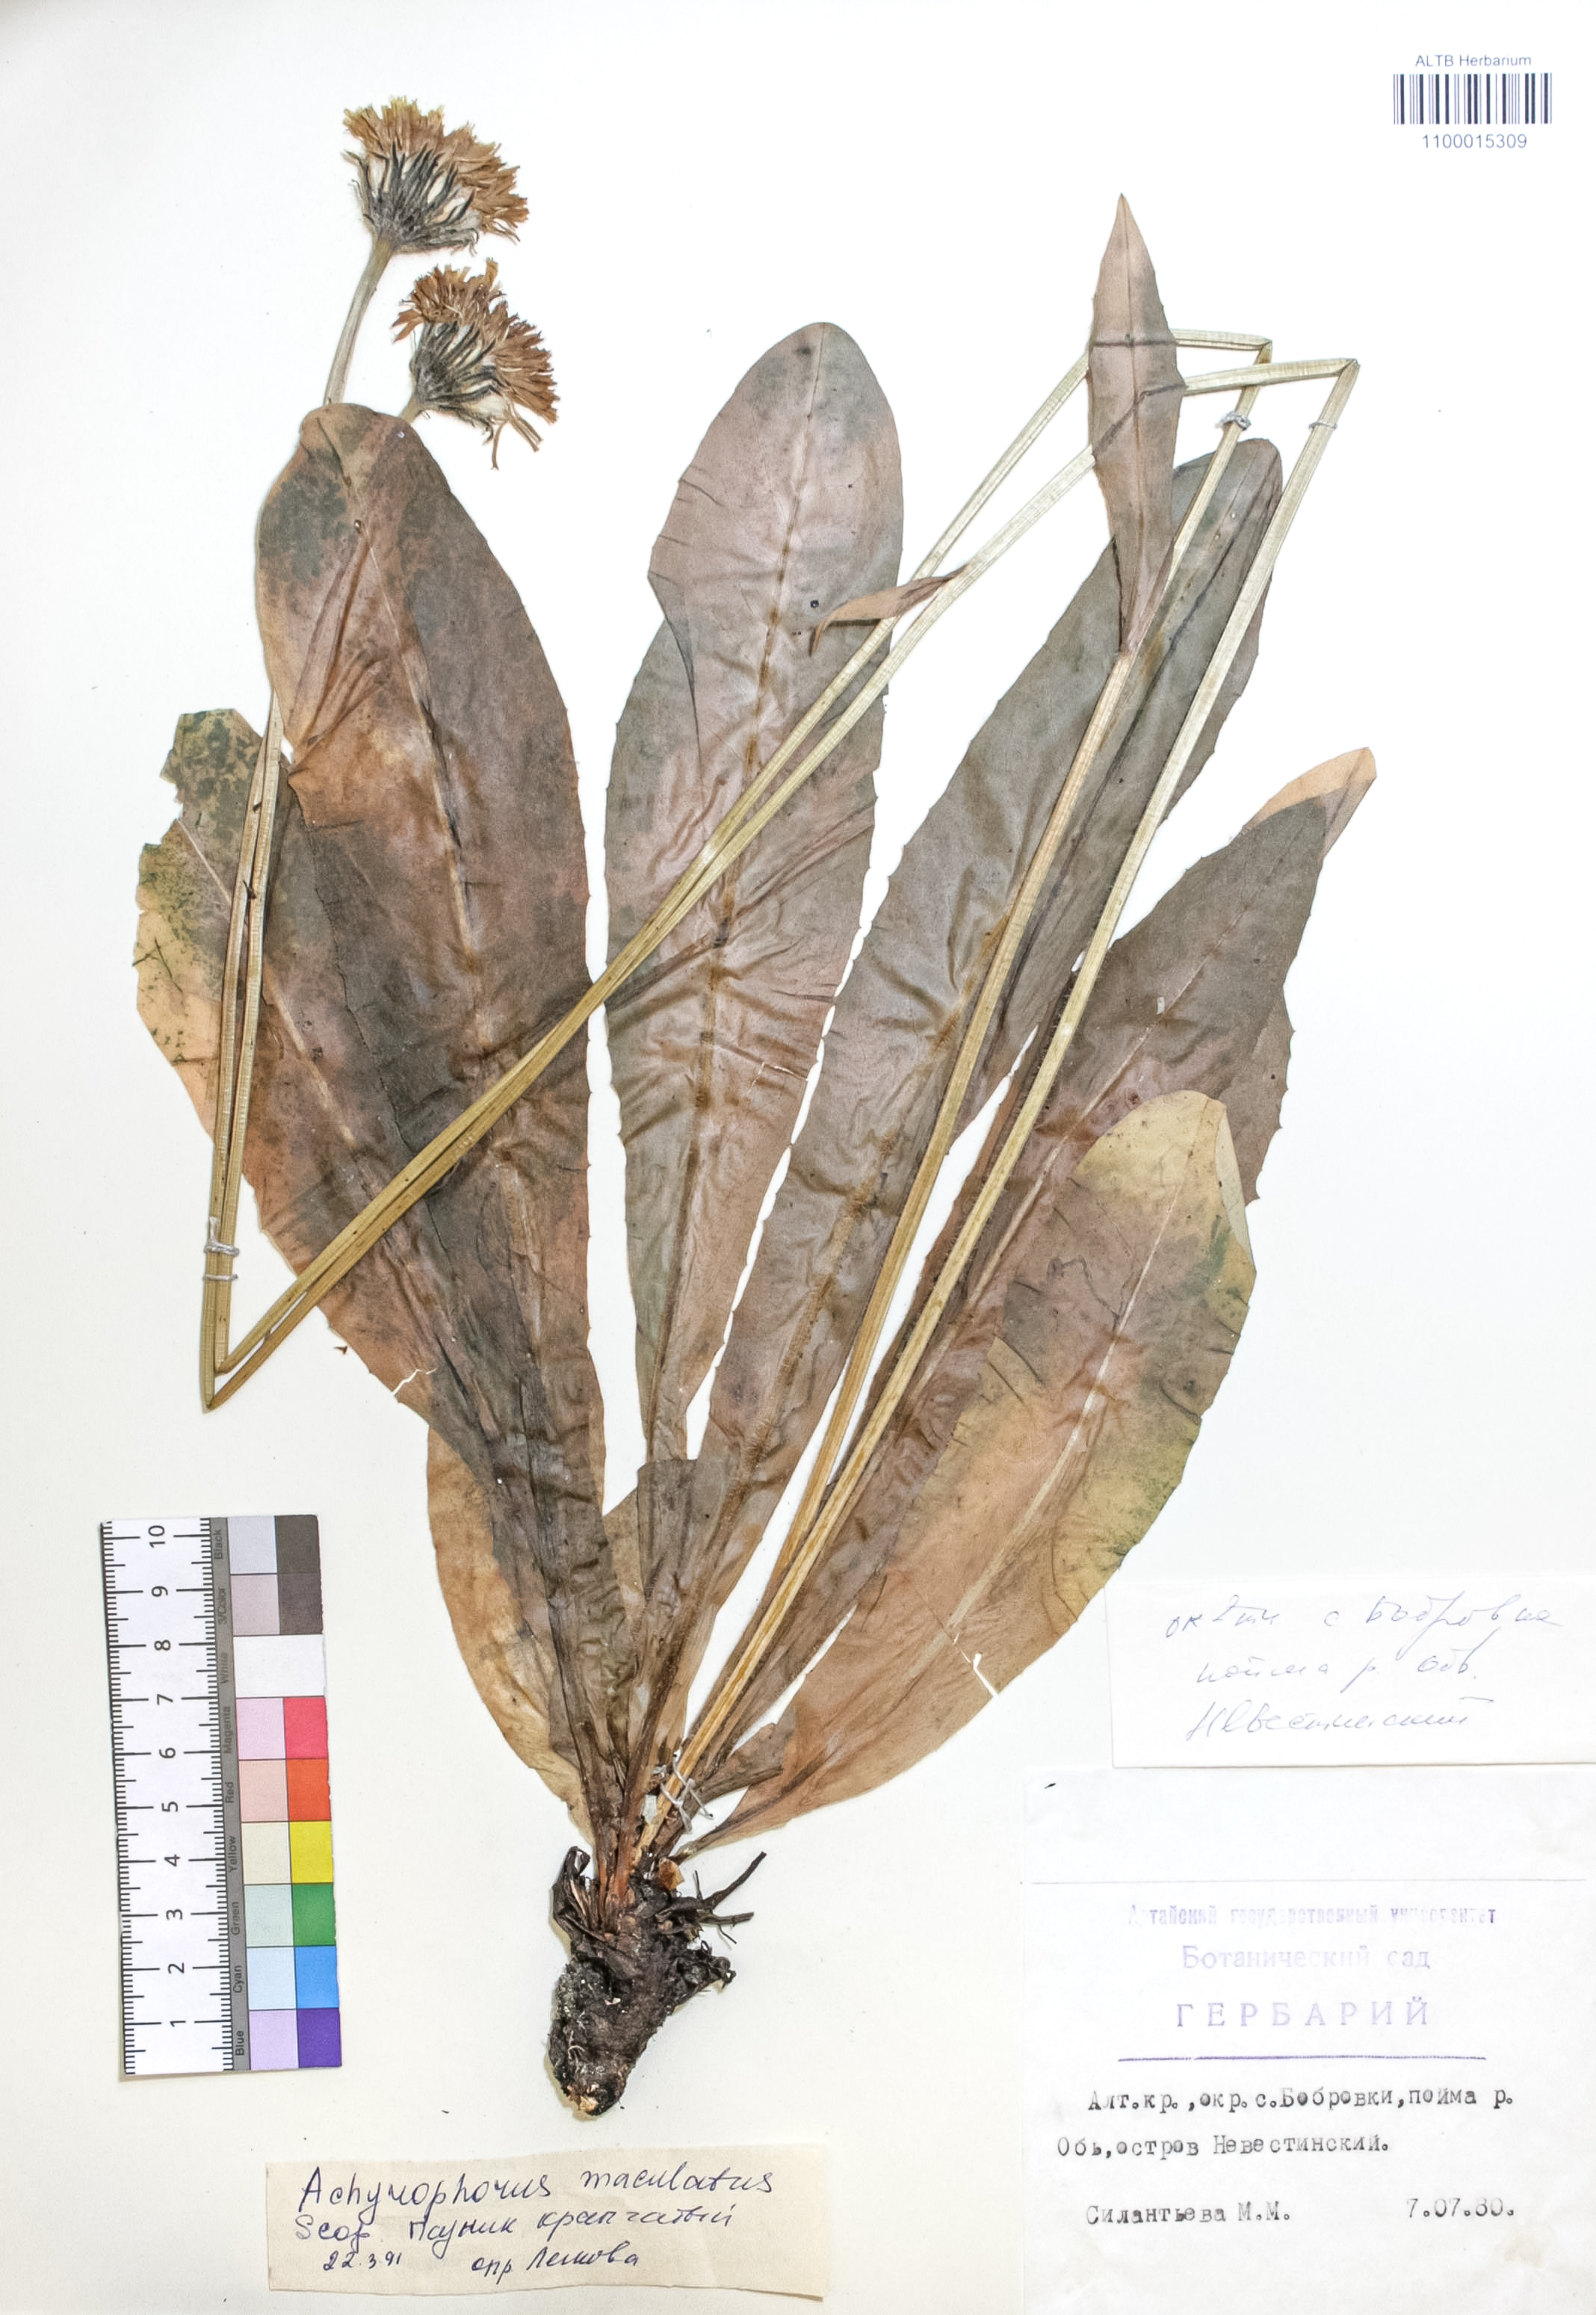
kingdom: Plantae
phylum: Tracheophyta
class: Magnoliopsida
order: Asterales
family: Asteraceae
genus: Trommsdorffia
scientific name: Trommsdorffia maculata
